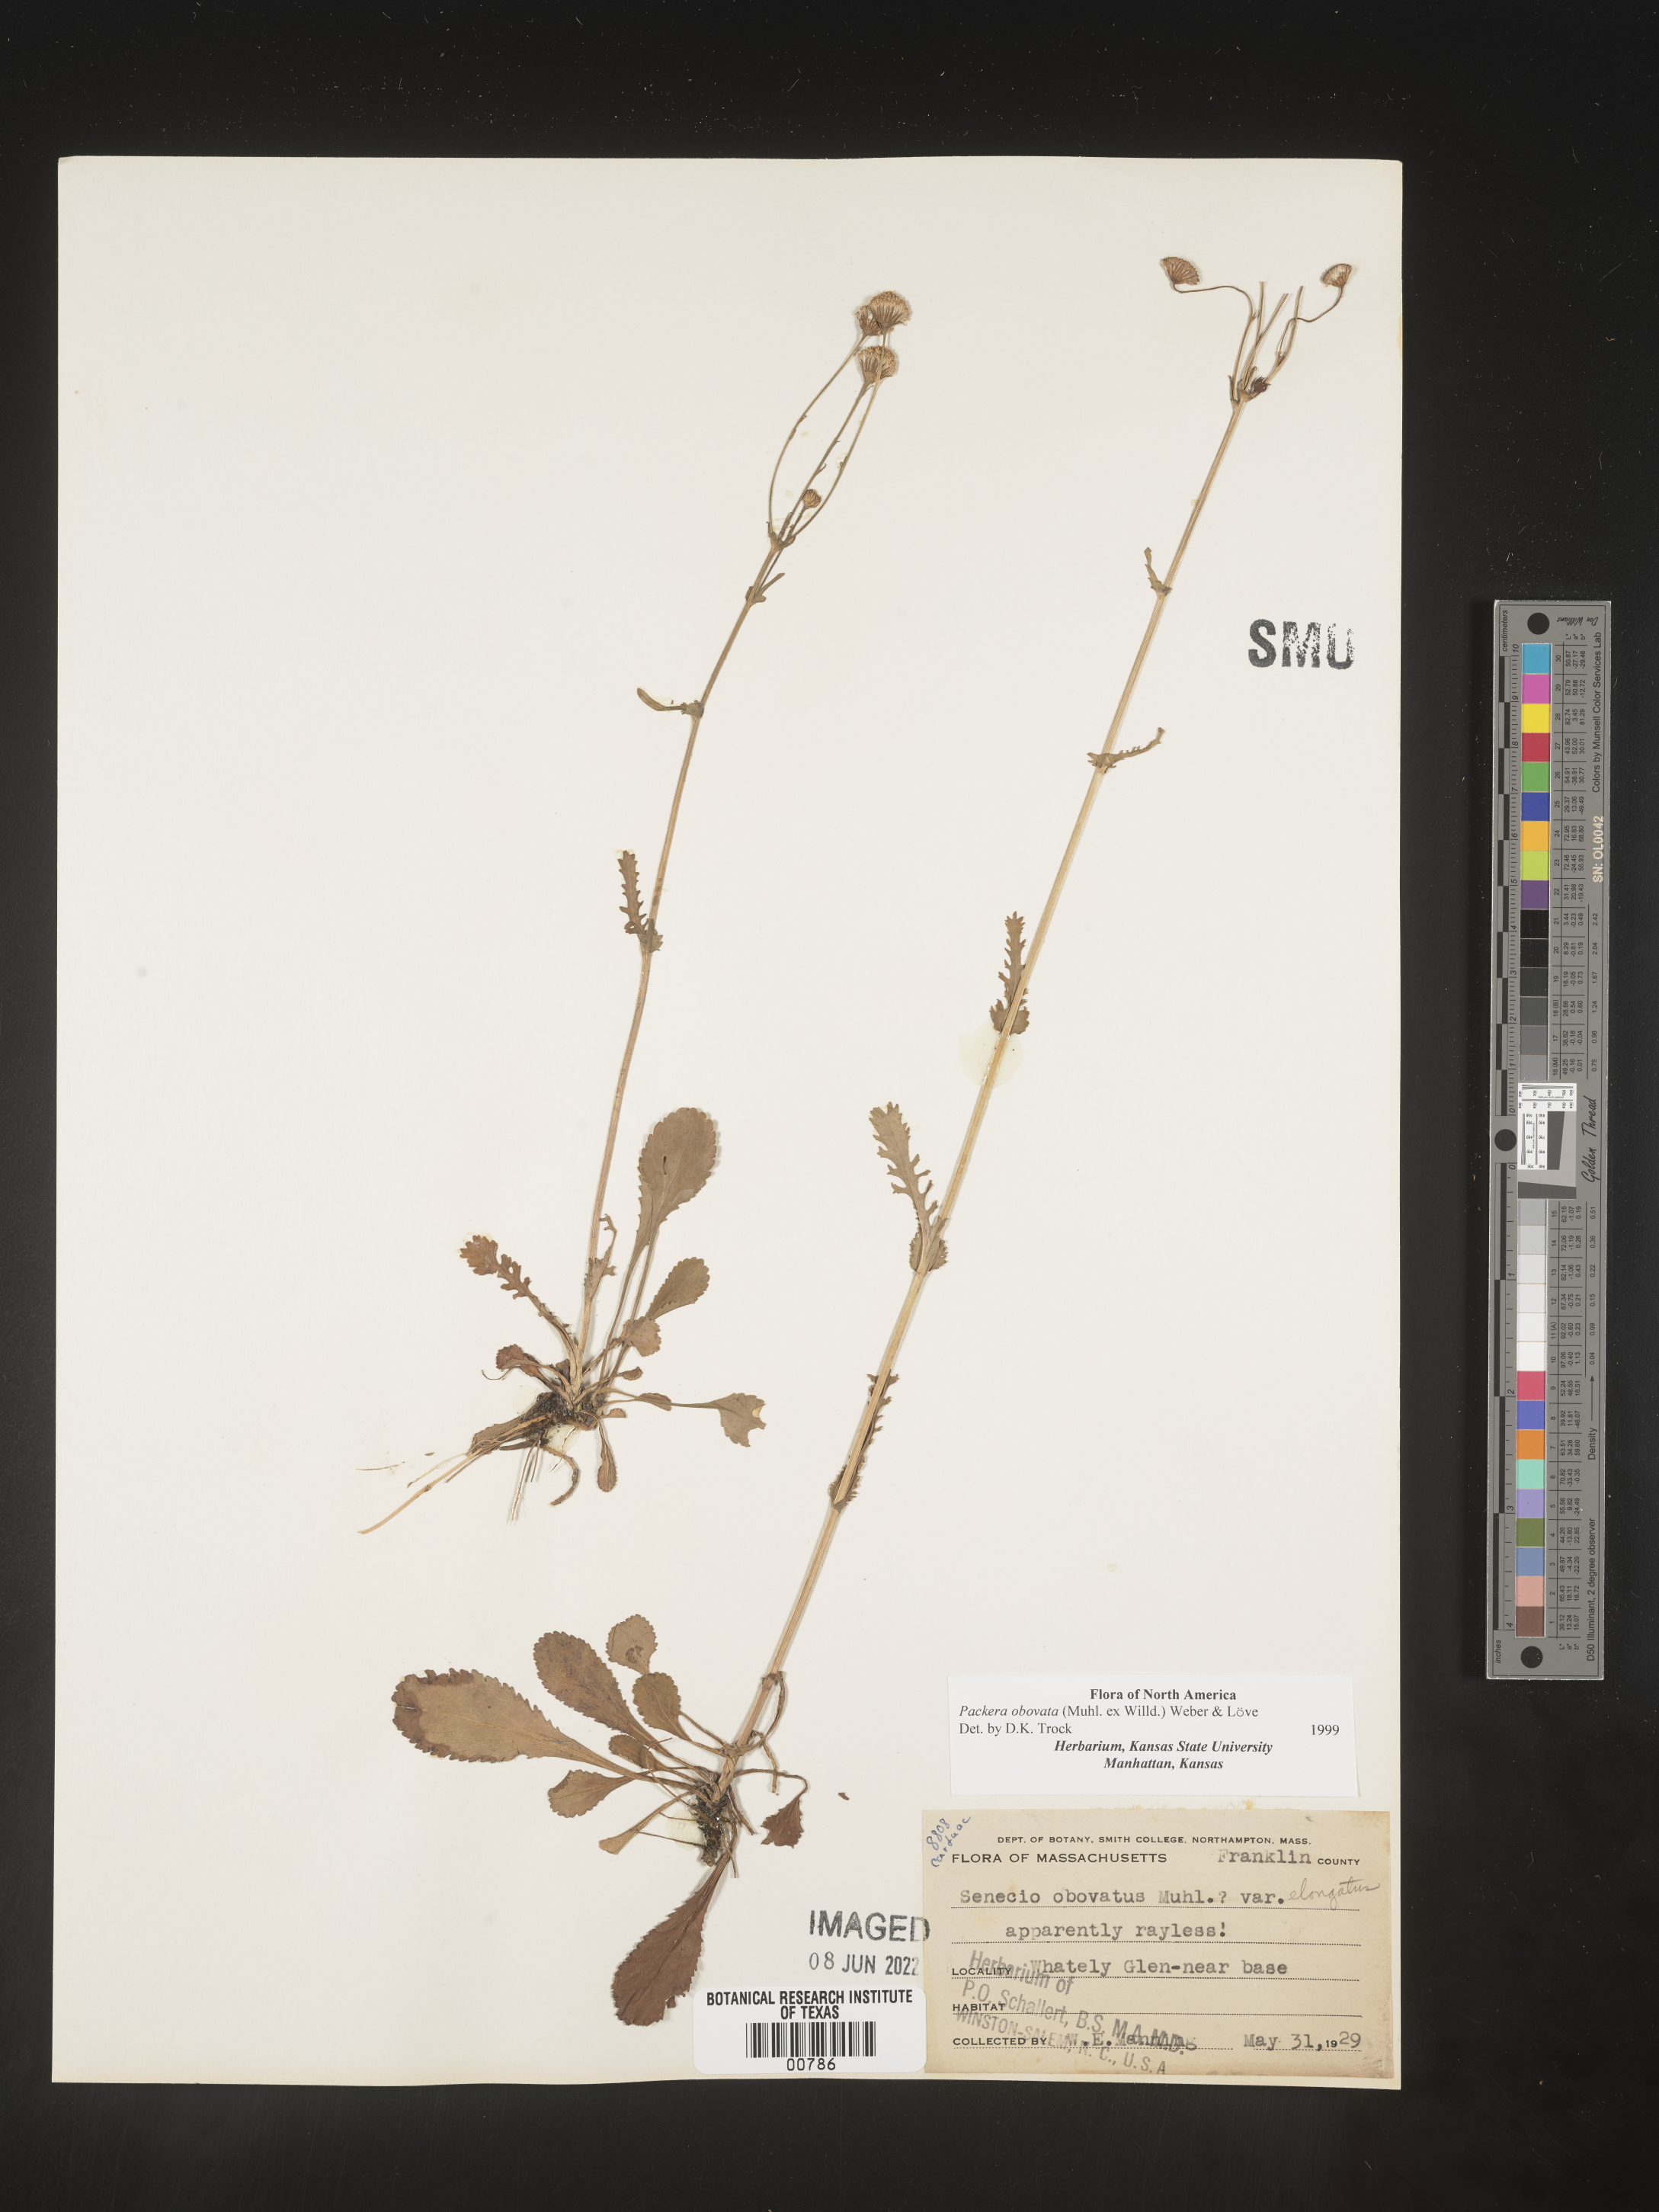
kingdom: Plantae
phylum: Tracheophyta
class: Magnoliopsida
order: Asterales
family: Asteraceae
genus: Packera
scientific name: Packera obovata
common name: Round-leaf ragwort
